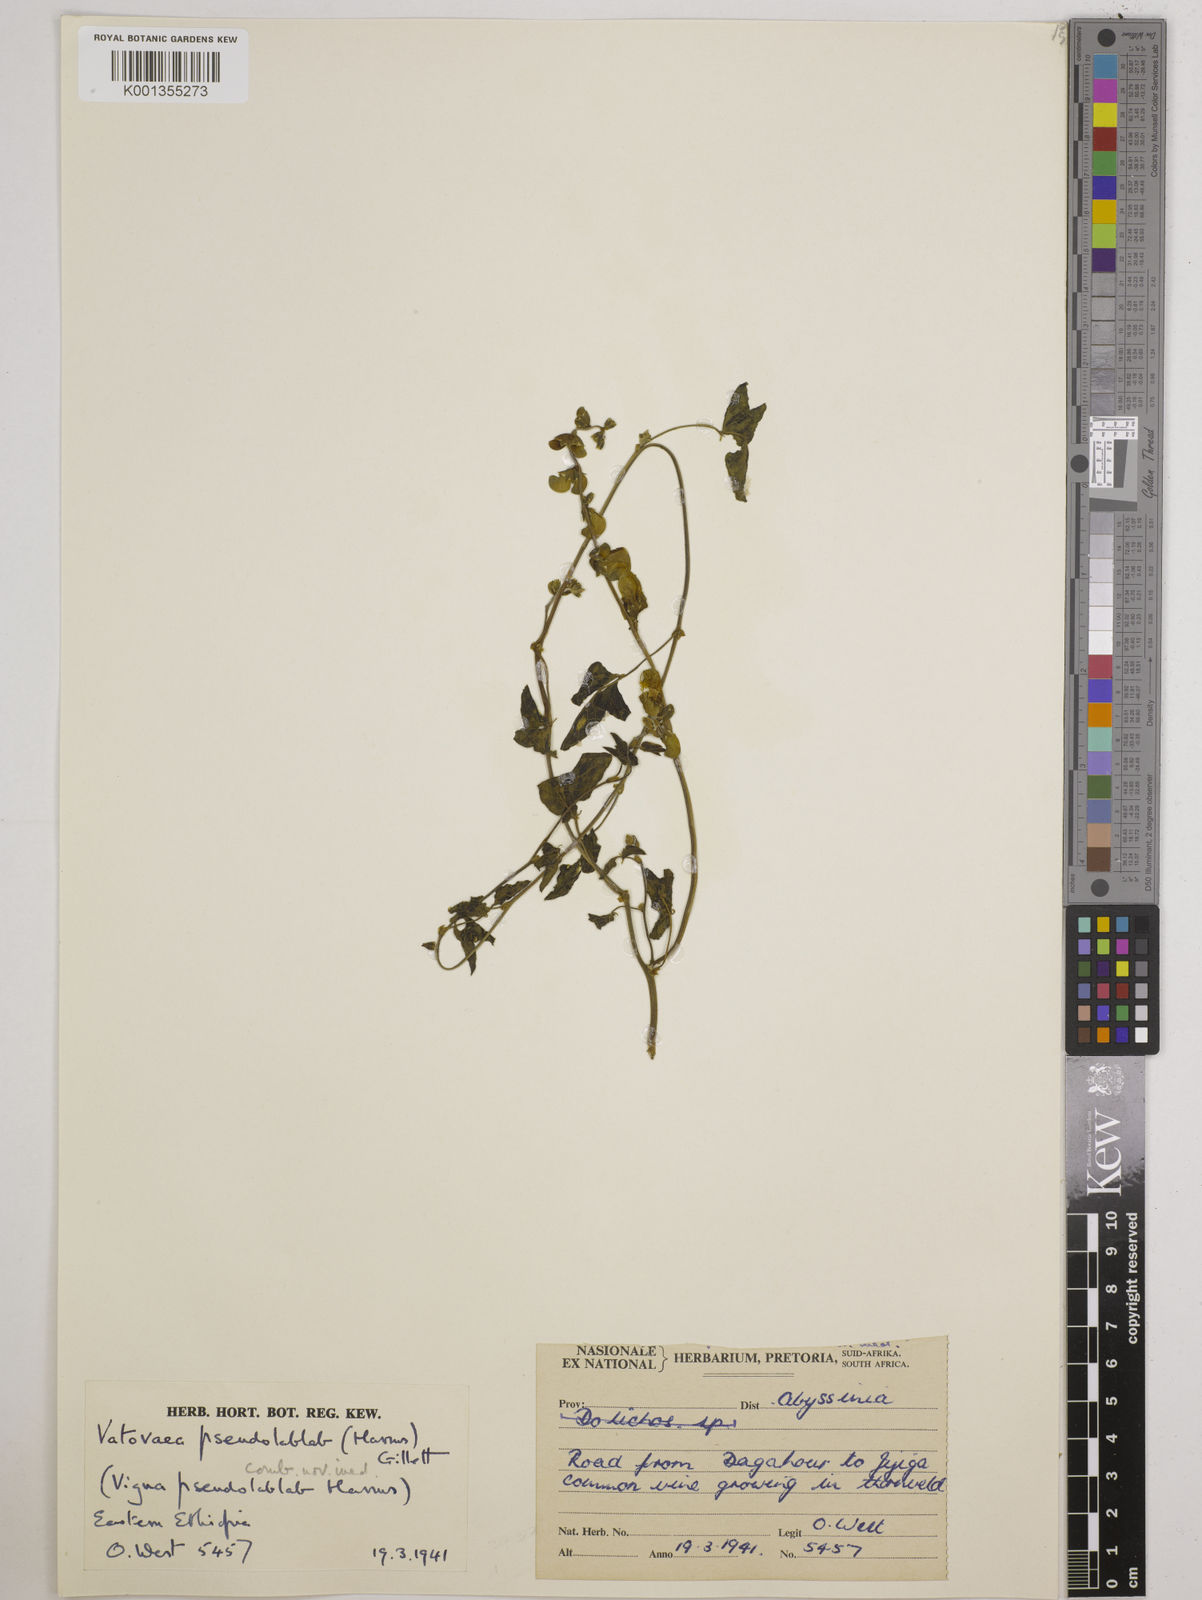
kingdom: Plantae
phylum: Tracheophyta
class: Magnoliopsida
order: Fabales
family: Fabaceae
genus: Vatovaea
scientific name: Vatovaea pseudolablab
